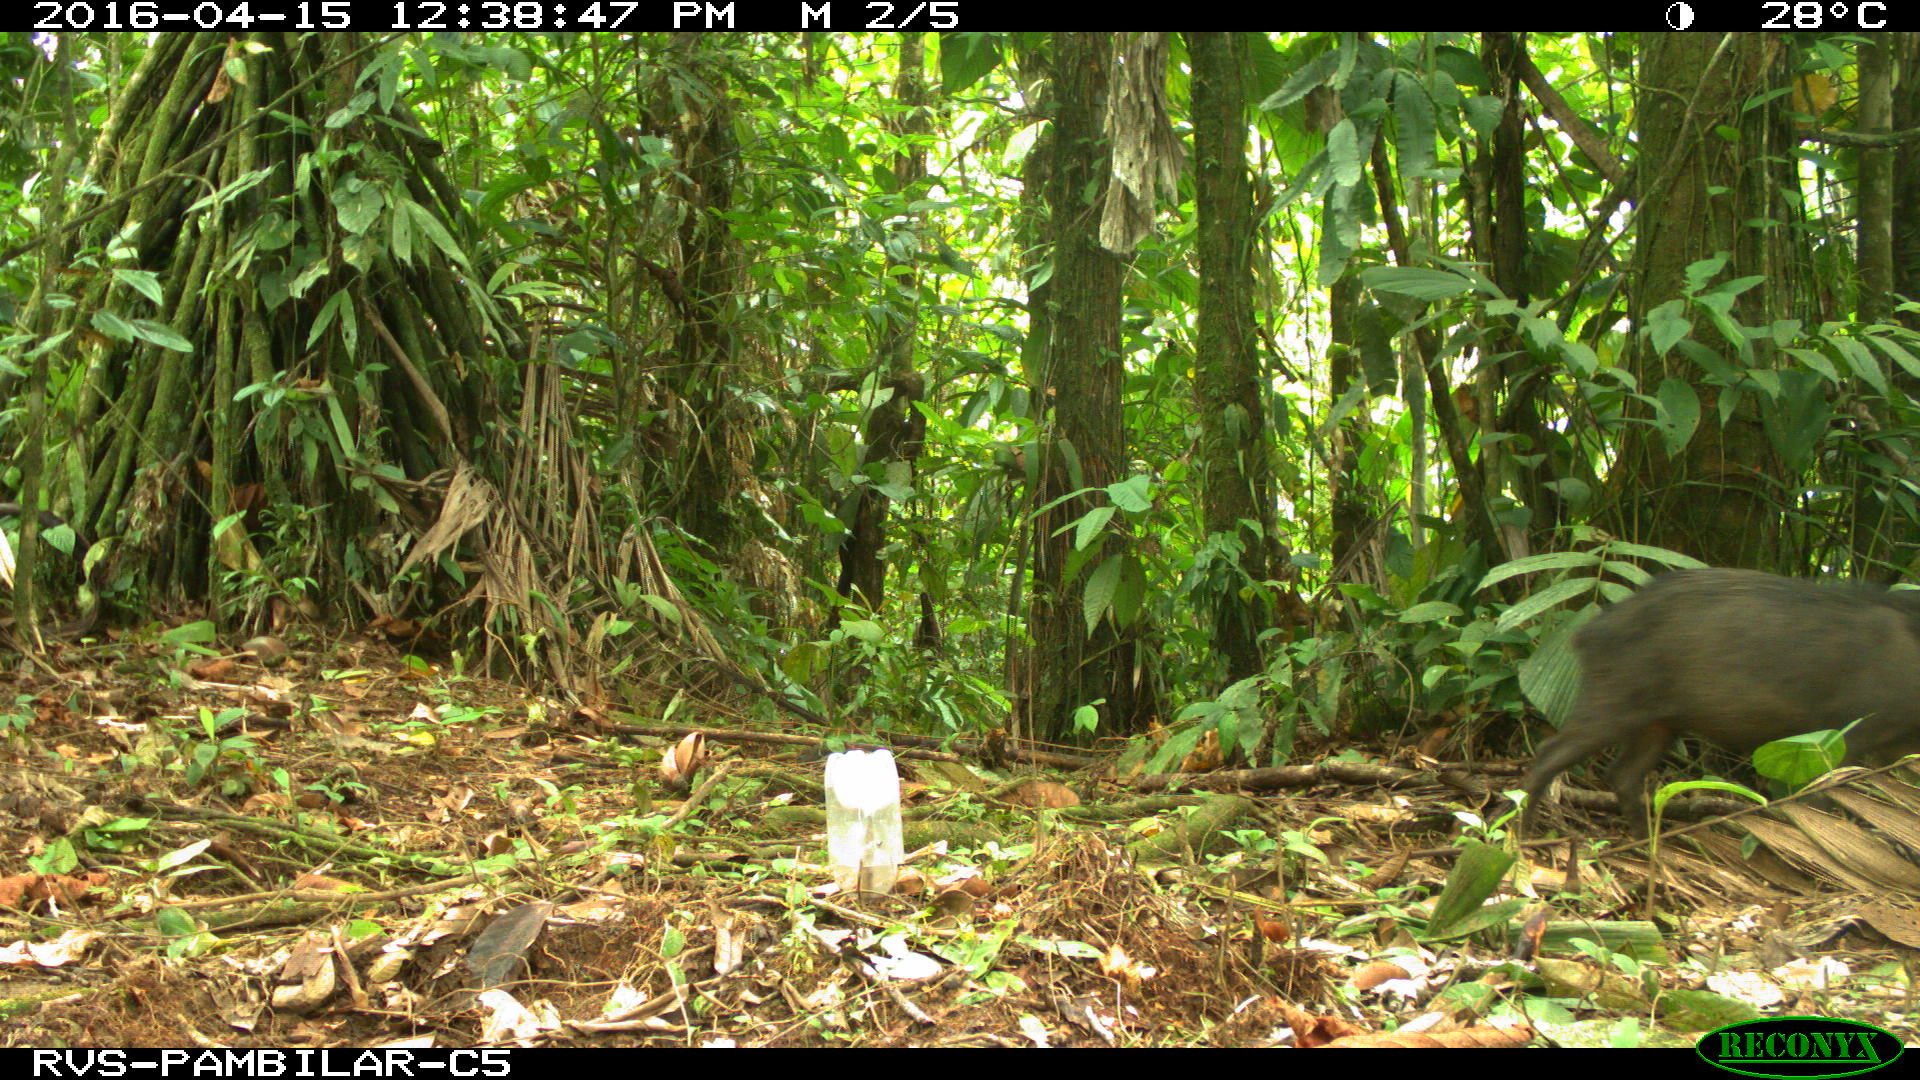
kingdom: Animalia
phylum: Chordata
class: Mammalia
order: Artiodactyla
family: Tayassuidae
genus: Tayassu
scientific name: Tayassu pecari
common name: White-lipped peccary
